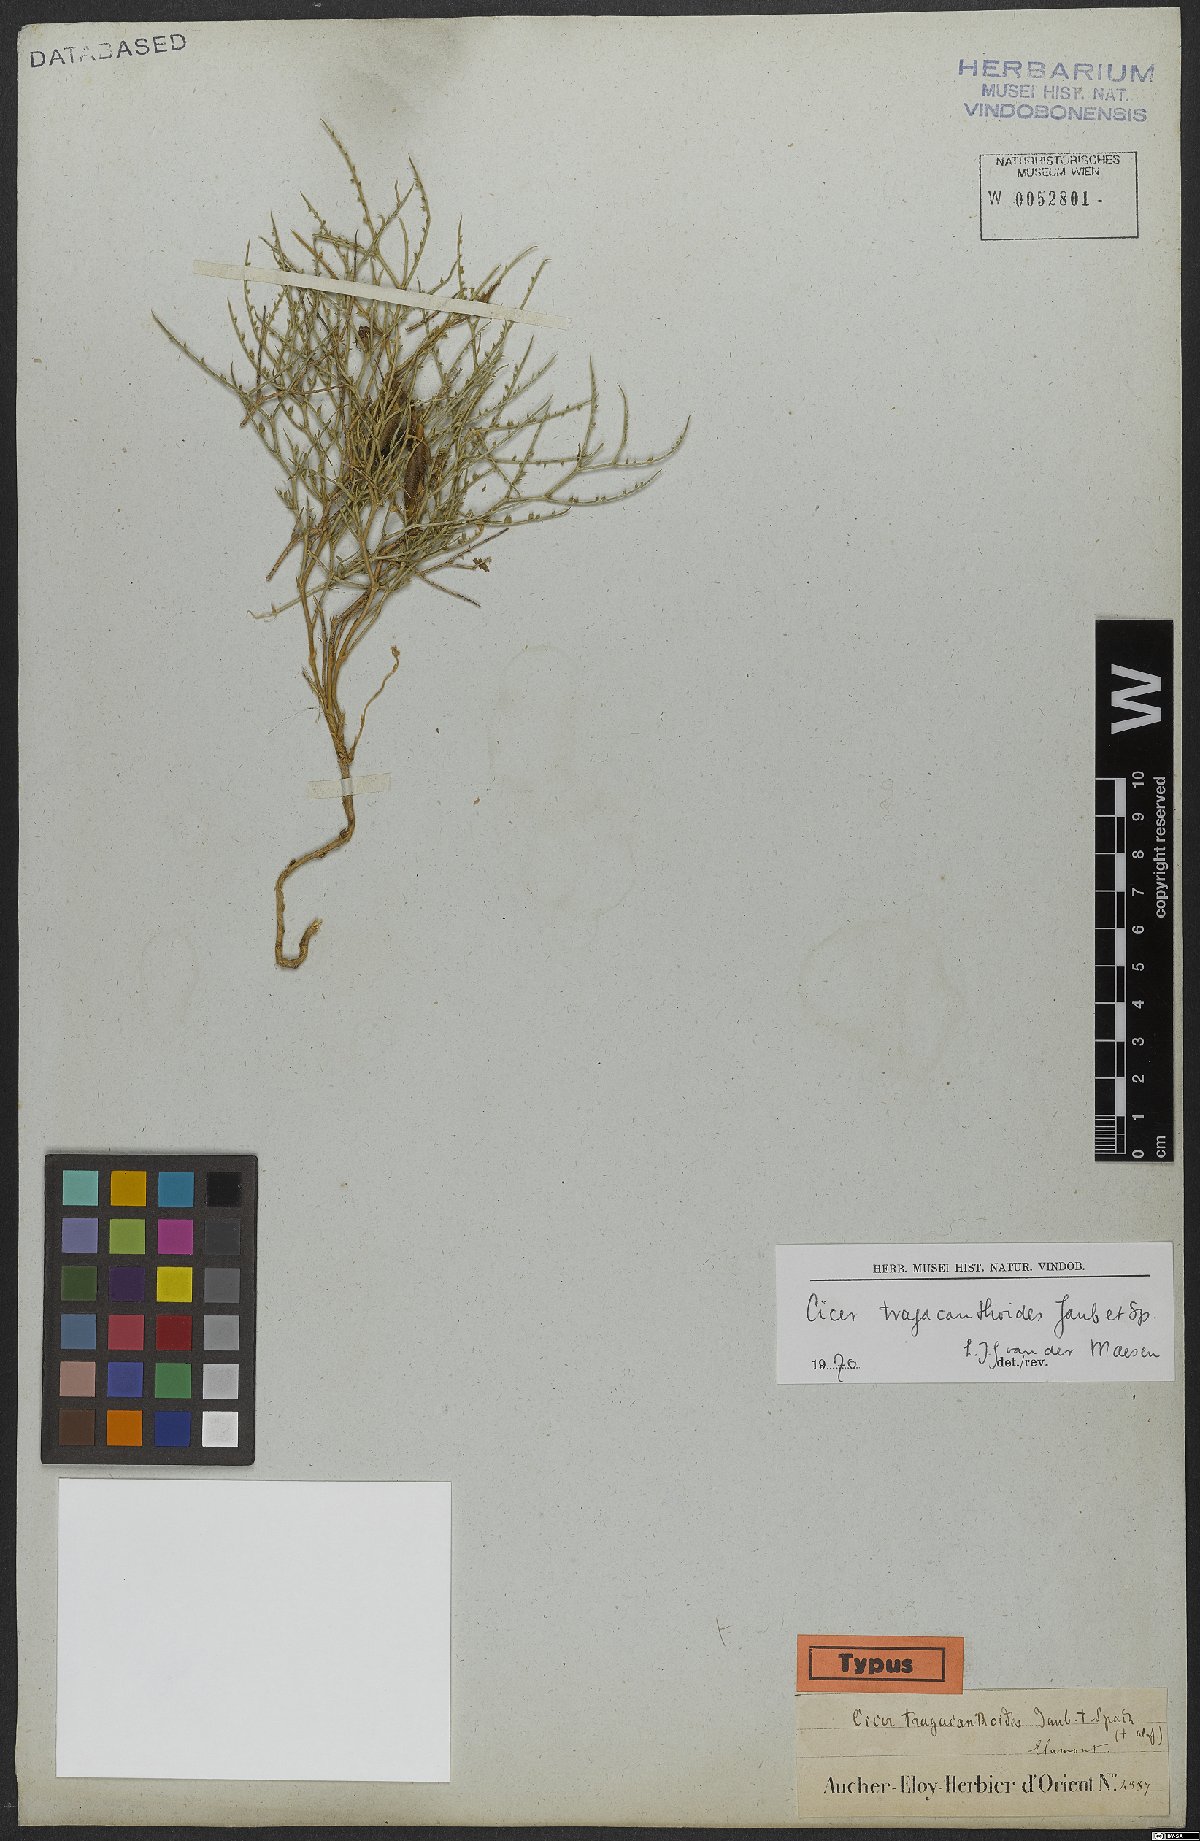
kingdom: Plantae
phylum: Tracheophyta
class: Magnoliopsida
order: Fabales
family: Fabaceae
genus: Cicer
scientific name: Cicer tragacanthoides
